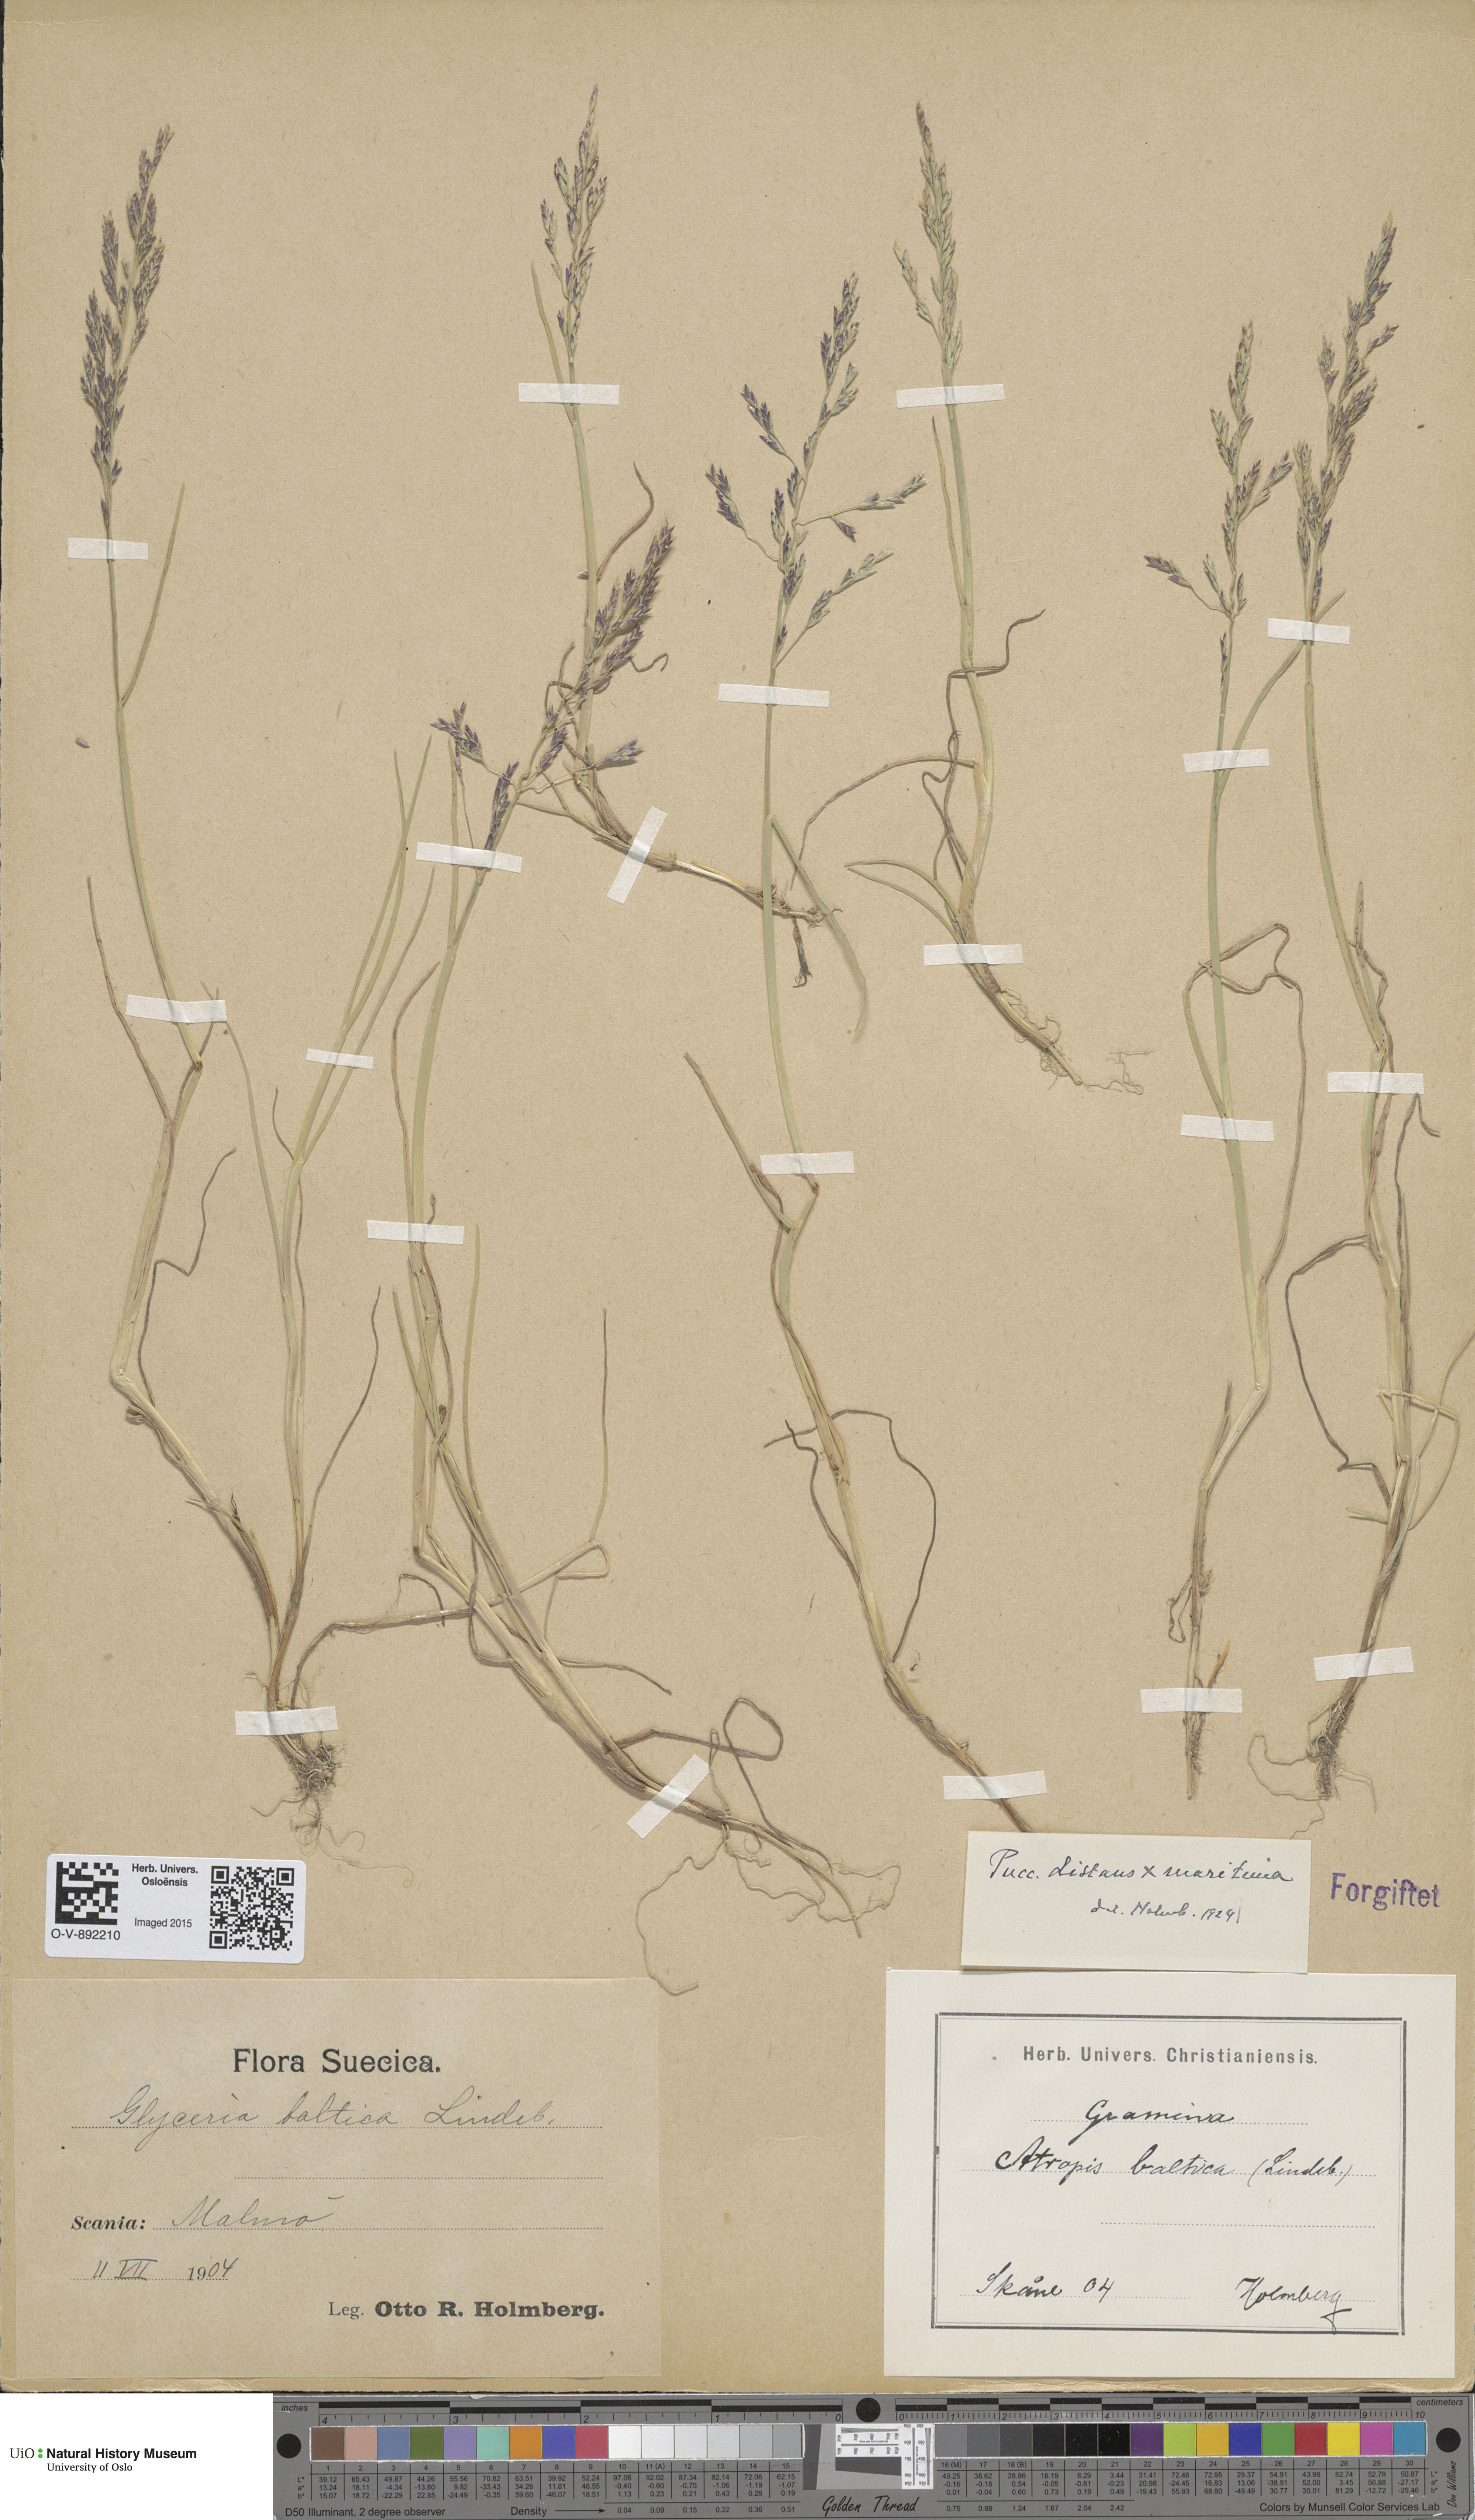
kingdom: Plantae
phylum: Tracheophyta
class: Liliopsida
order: Poales
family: Poaceae
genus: Puccinellia
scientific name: Puccinellia
